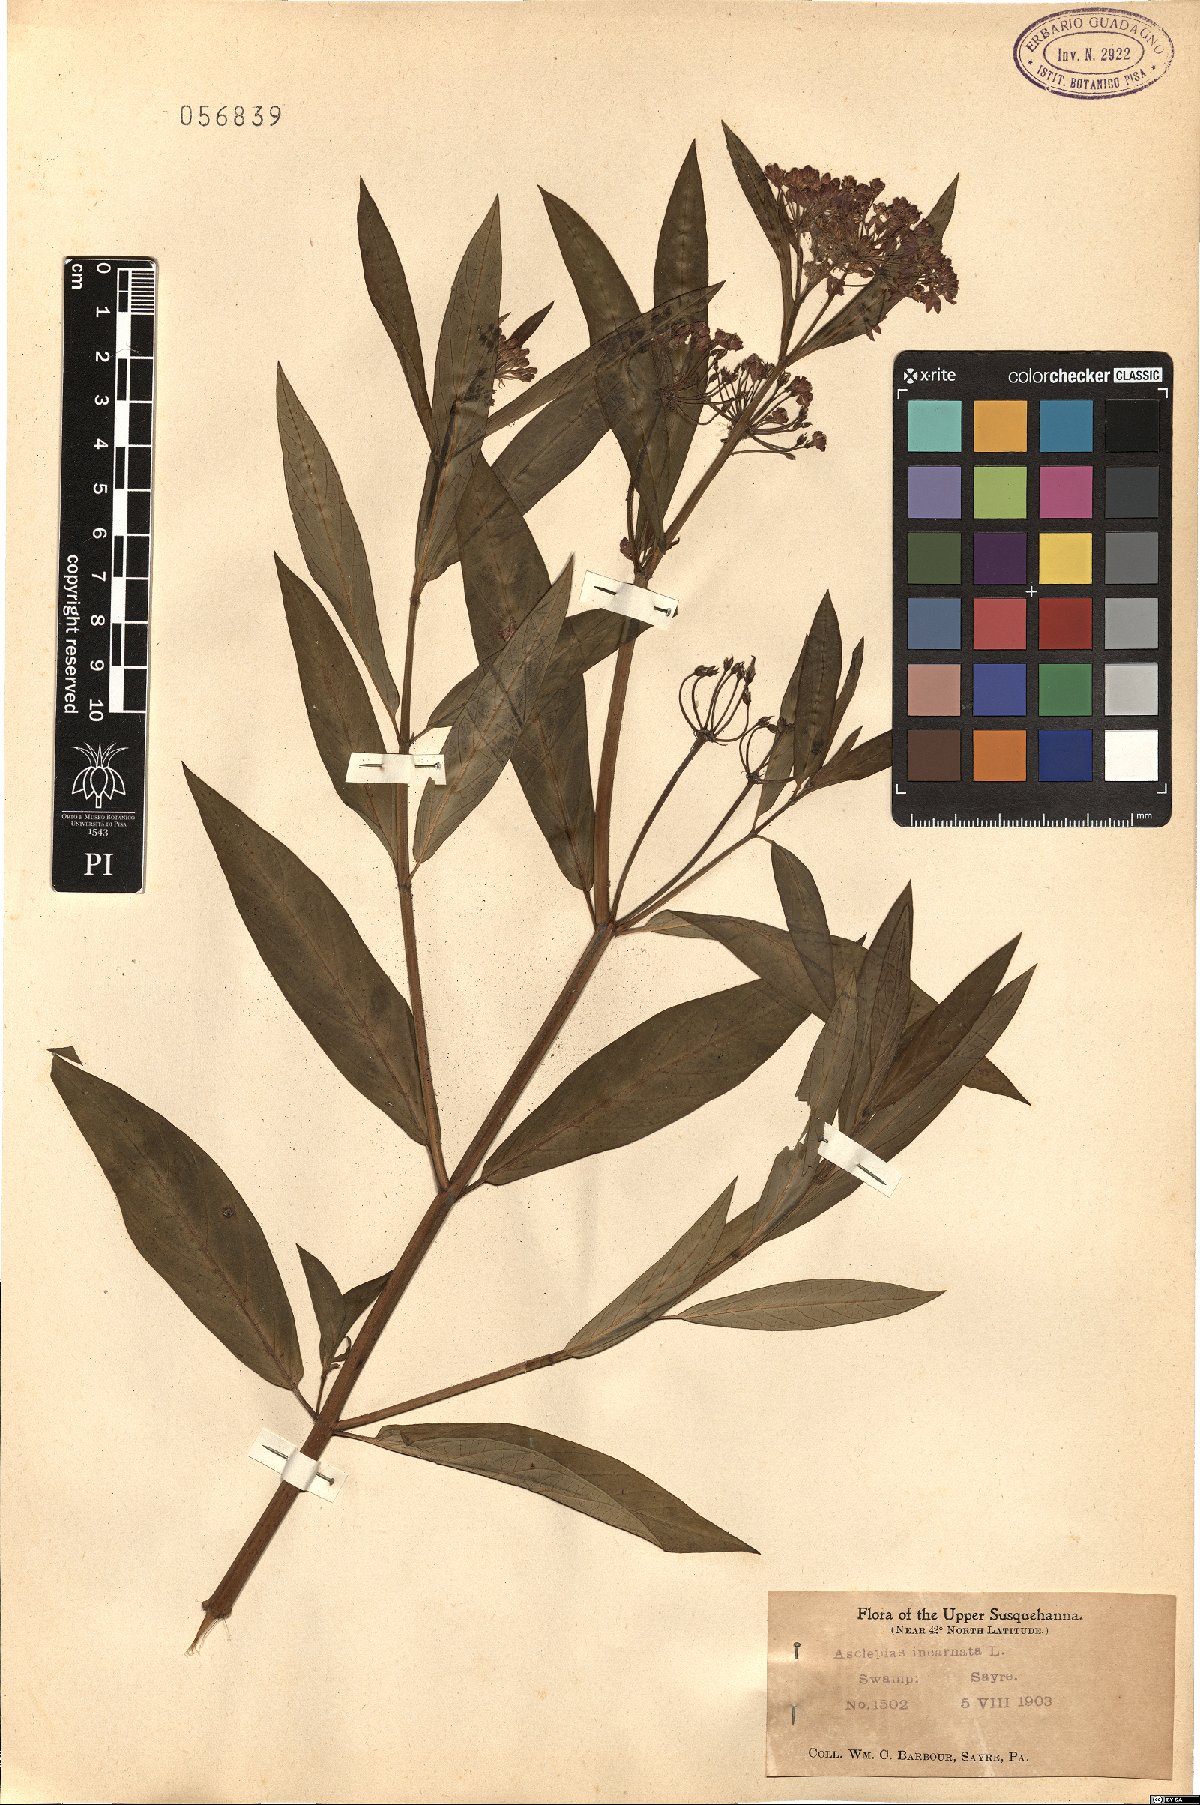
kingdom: Plantae
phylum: Tracheophyta
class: Magnoliopsida
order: Gentianales
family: Apocynaceae
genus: Asclepias
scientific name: Asclepias incarnata
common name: Swamp milkweed
